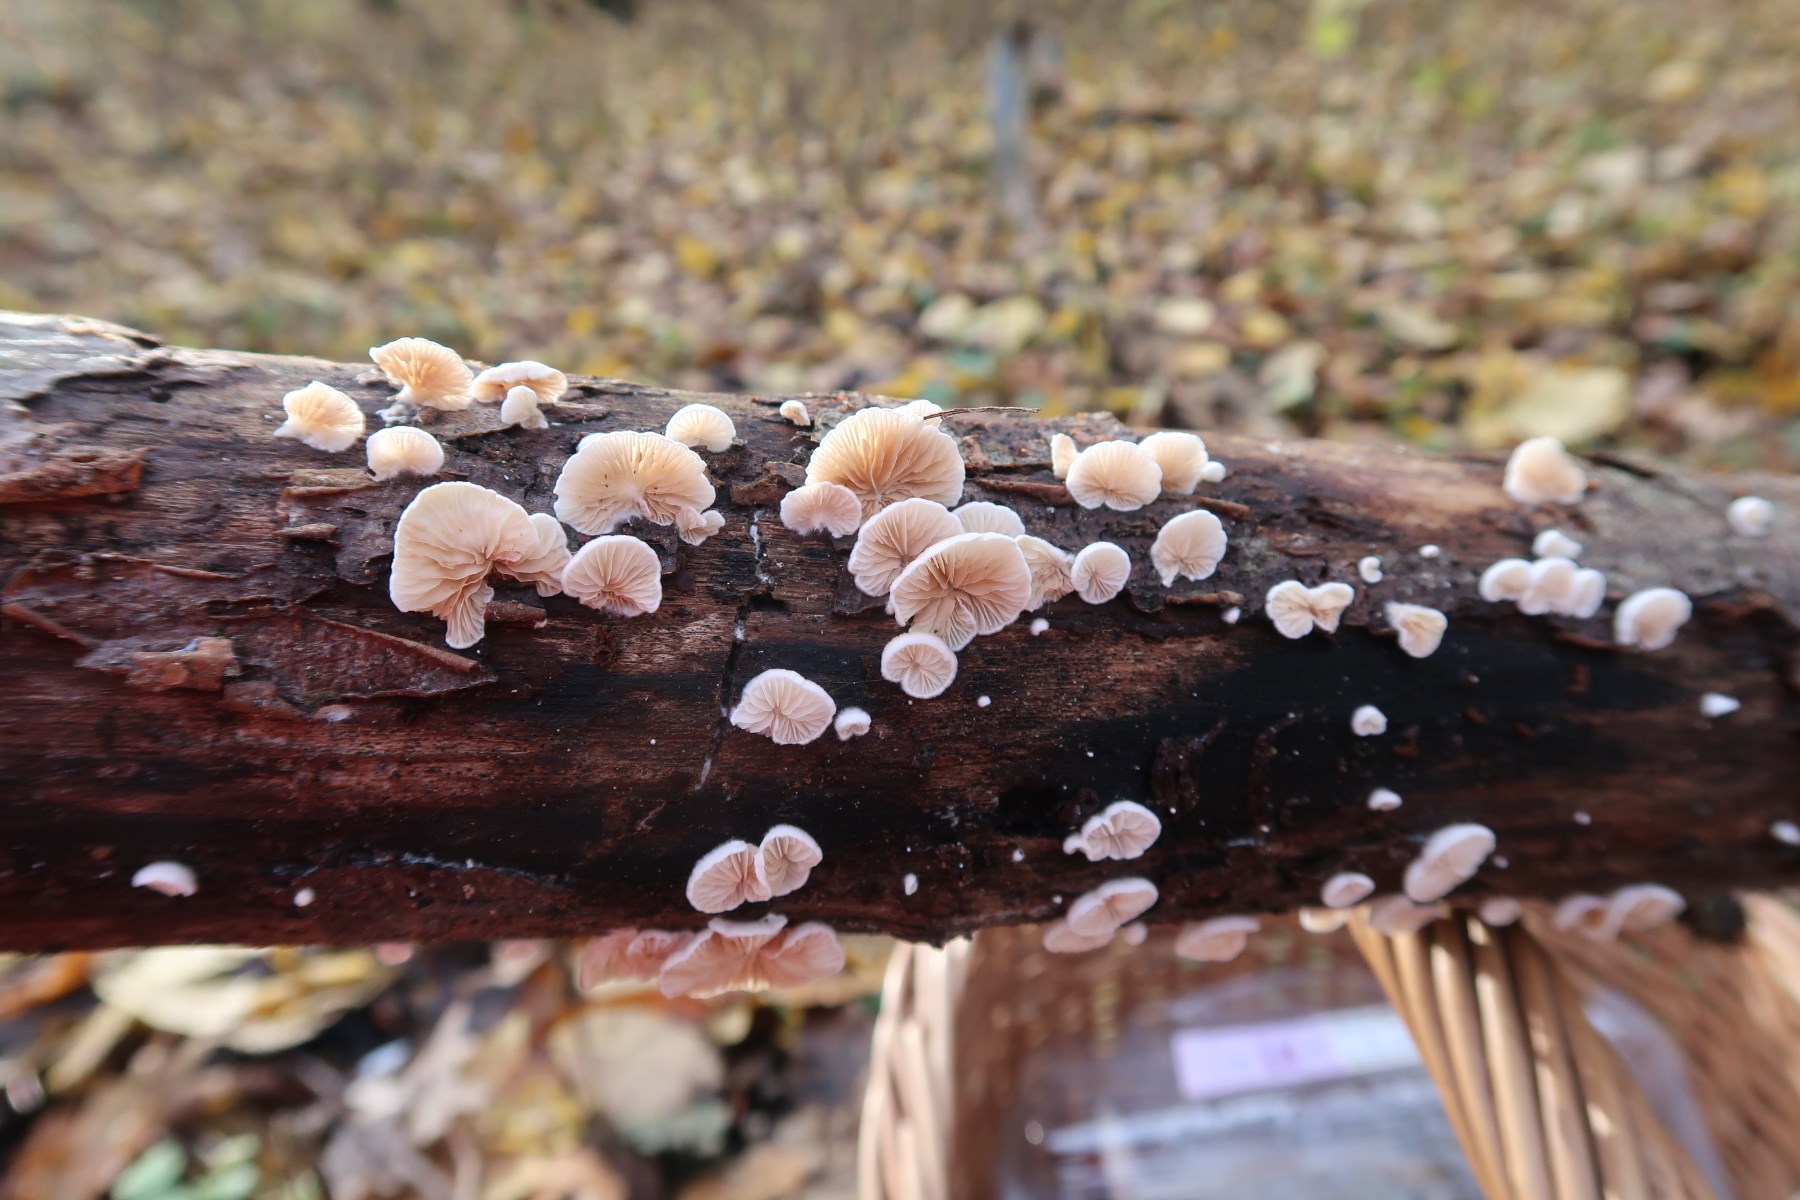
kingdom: Fungi
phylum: Basidiomycota
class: Agaricomycetes
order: Agaricales
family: Crepidotaceae
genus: Crepidotus
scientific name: Crepidotus cesatii
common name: almindelig muslingesvamp
